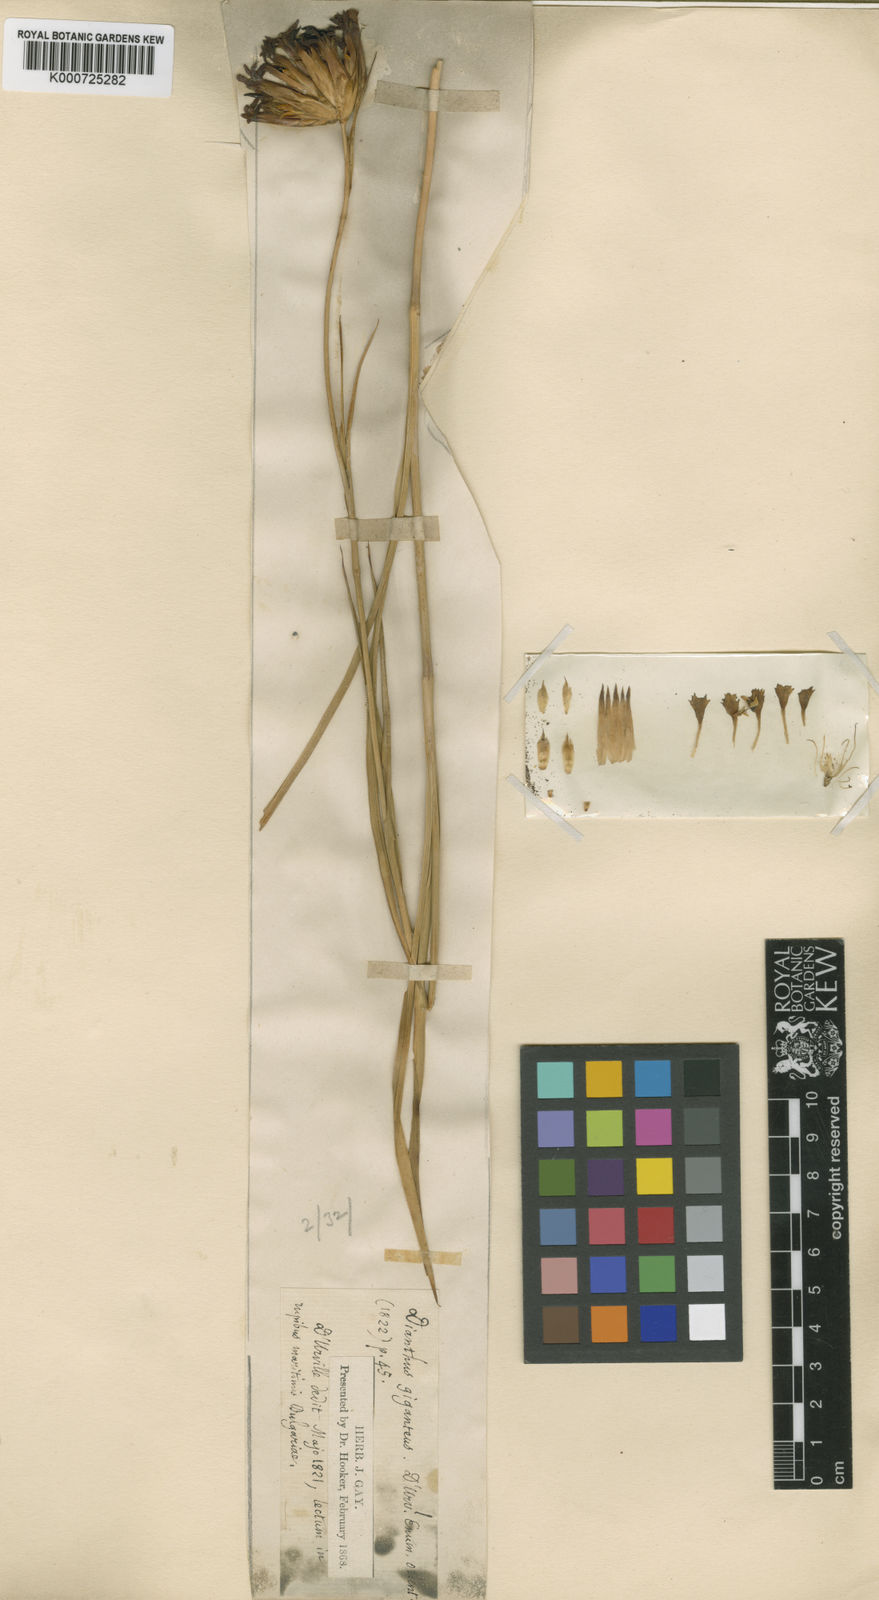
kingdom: Plantae
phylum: Tracheophyta
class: Magnoliopsida
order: Caryophyllales
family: Caryophyllaceae
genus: Dianthus
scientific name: Dianthus giganteus
